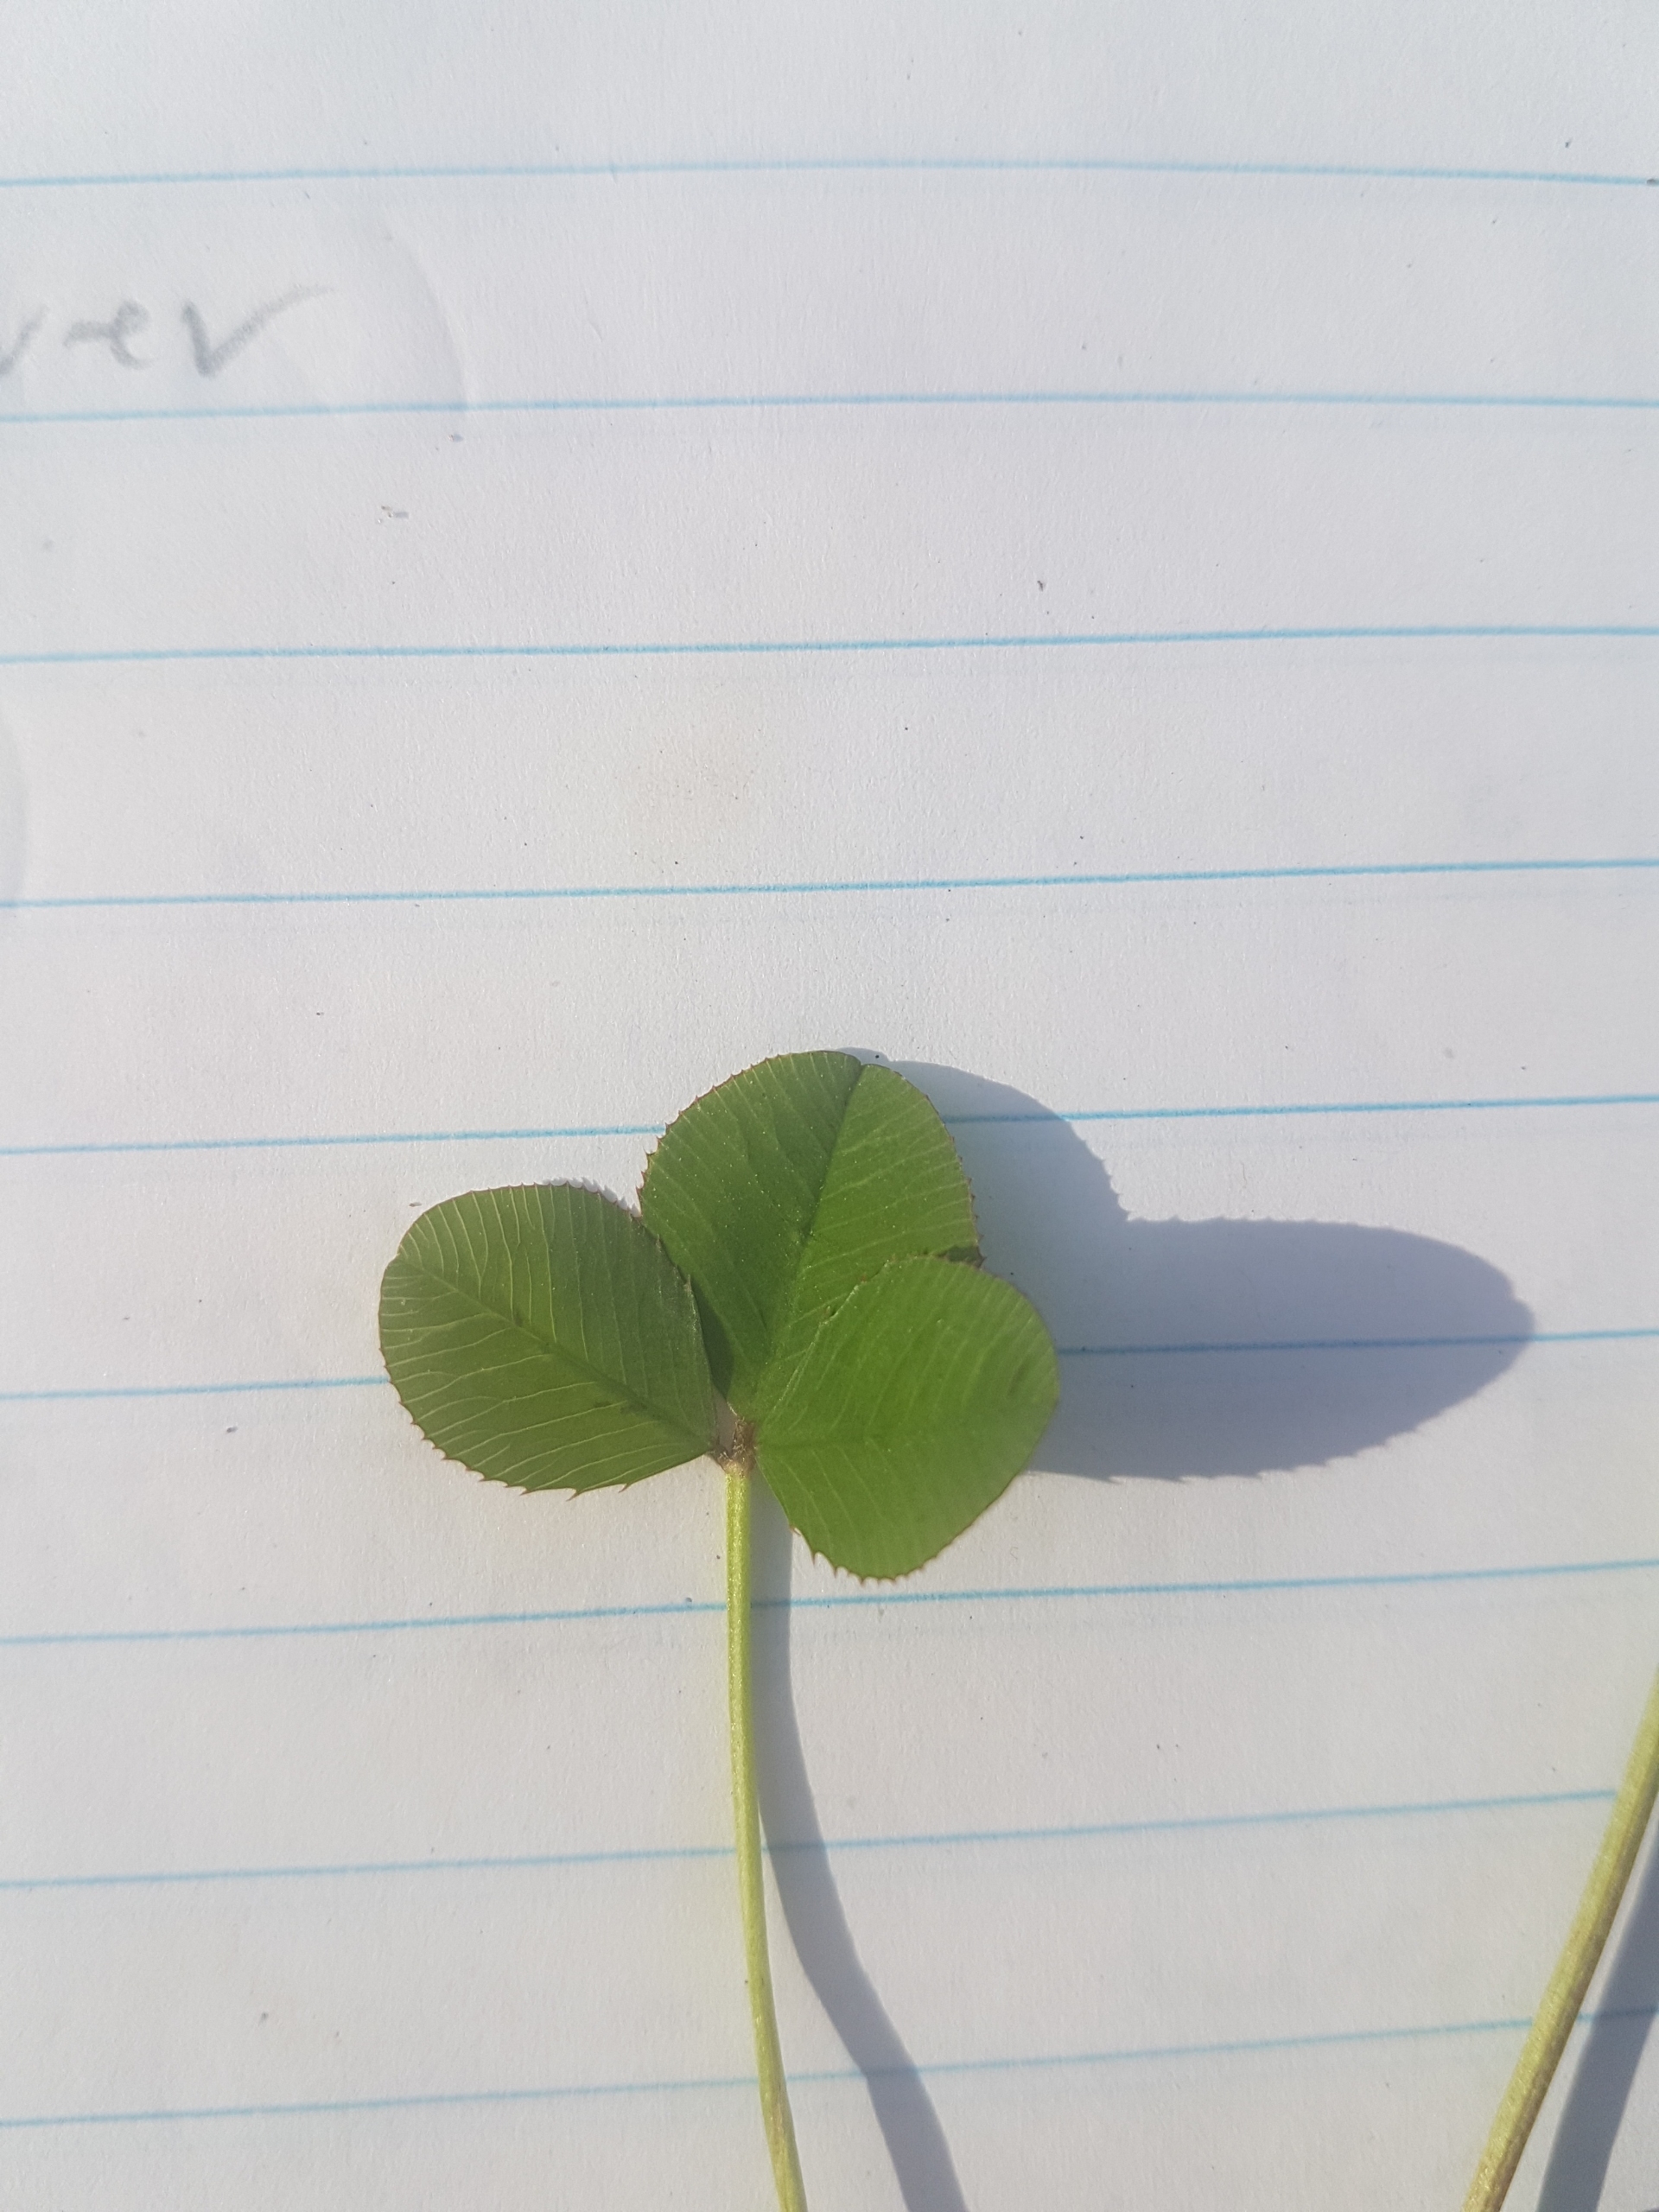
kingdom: Plantae
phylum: Tracheophyta
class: Magnoliopsida
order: Fabales
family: Fabaceae
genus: Trifolium
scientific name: Trifolium repens
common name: Hvid-kløver
